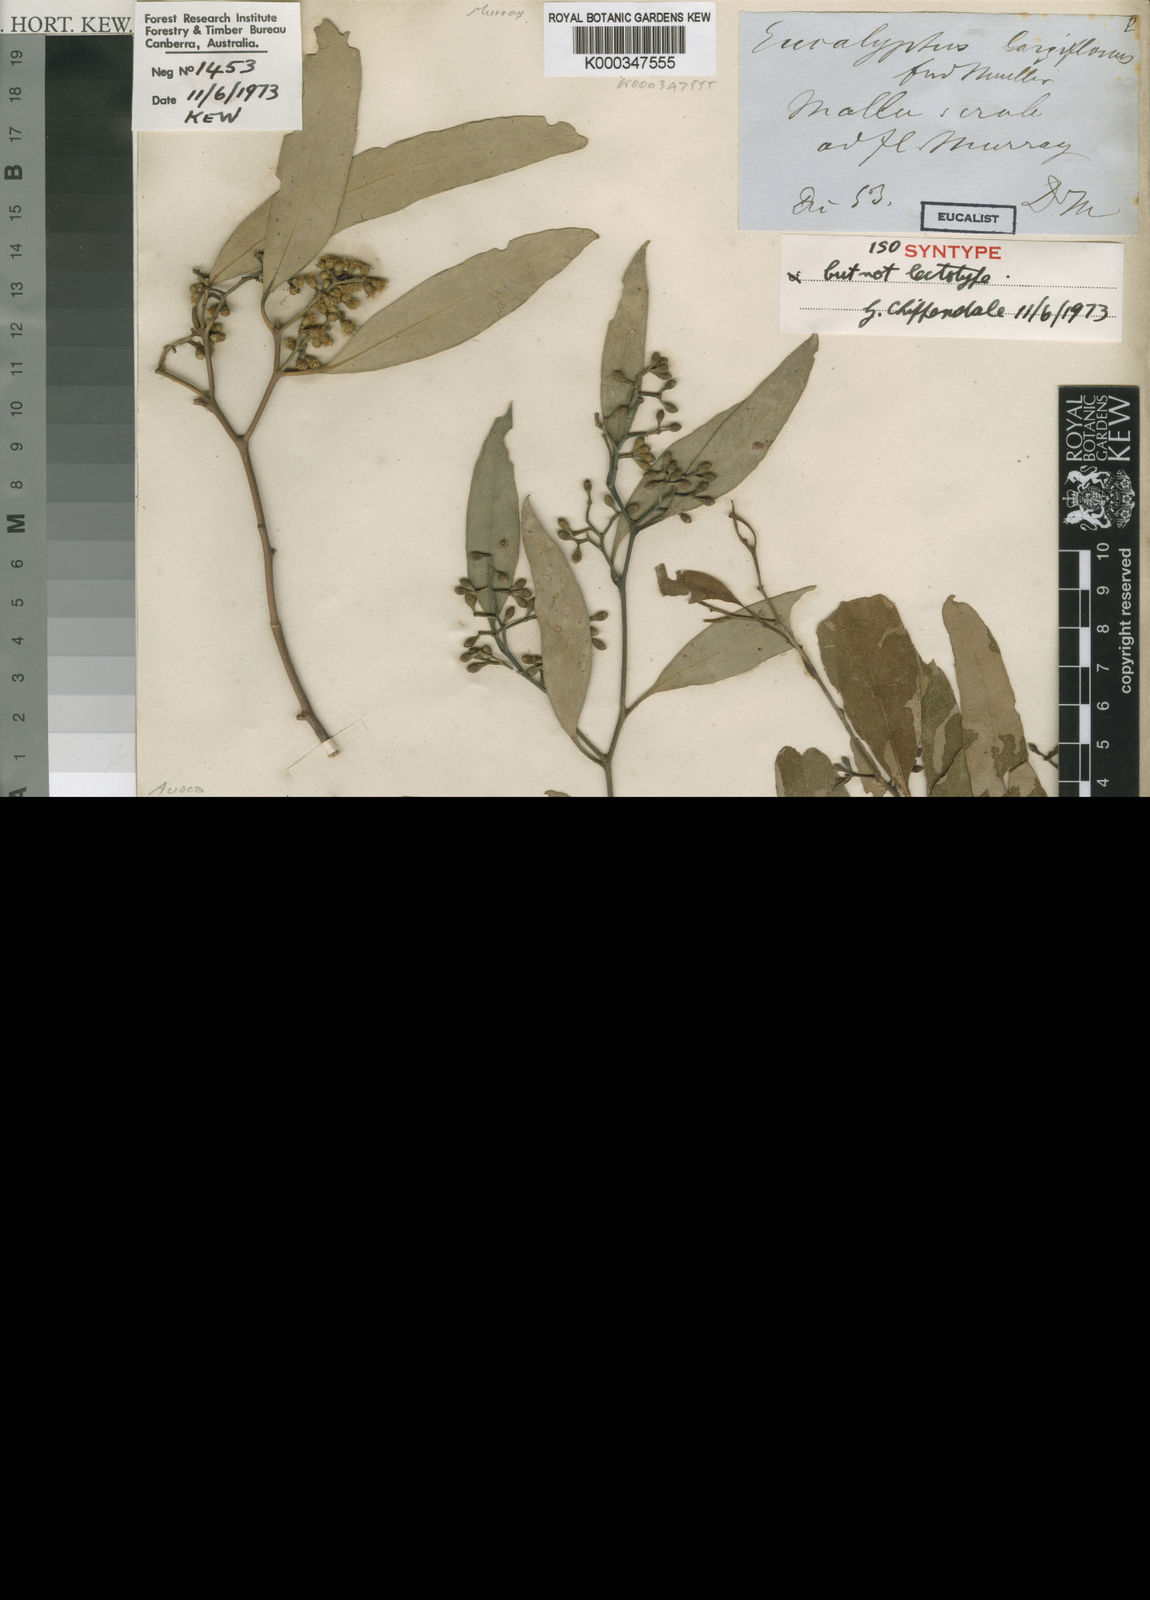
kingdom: Plantae
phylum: Tracheophyta
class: Magnoliopsida
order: Myrtales
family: Myrtaceae
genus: Eucalyptus
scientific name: Eucalyptus largiflorens
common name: Black-box
